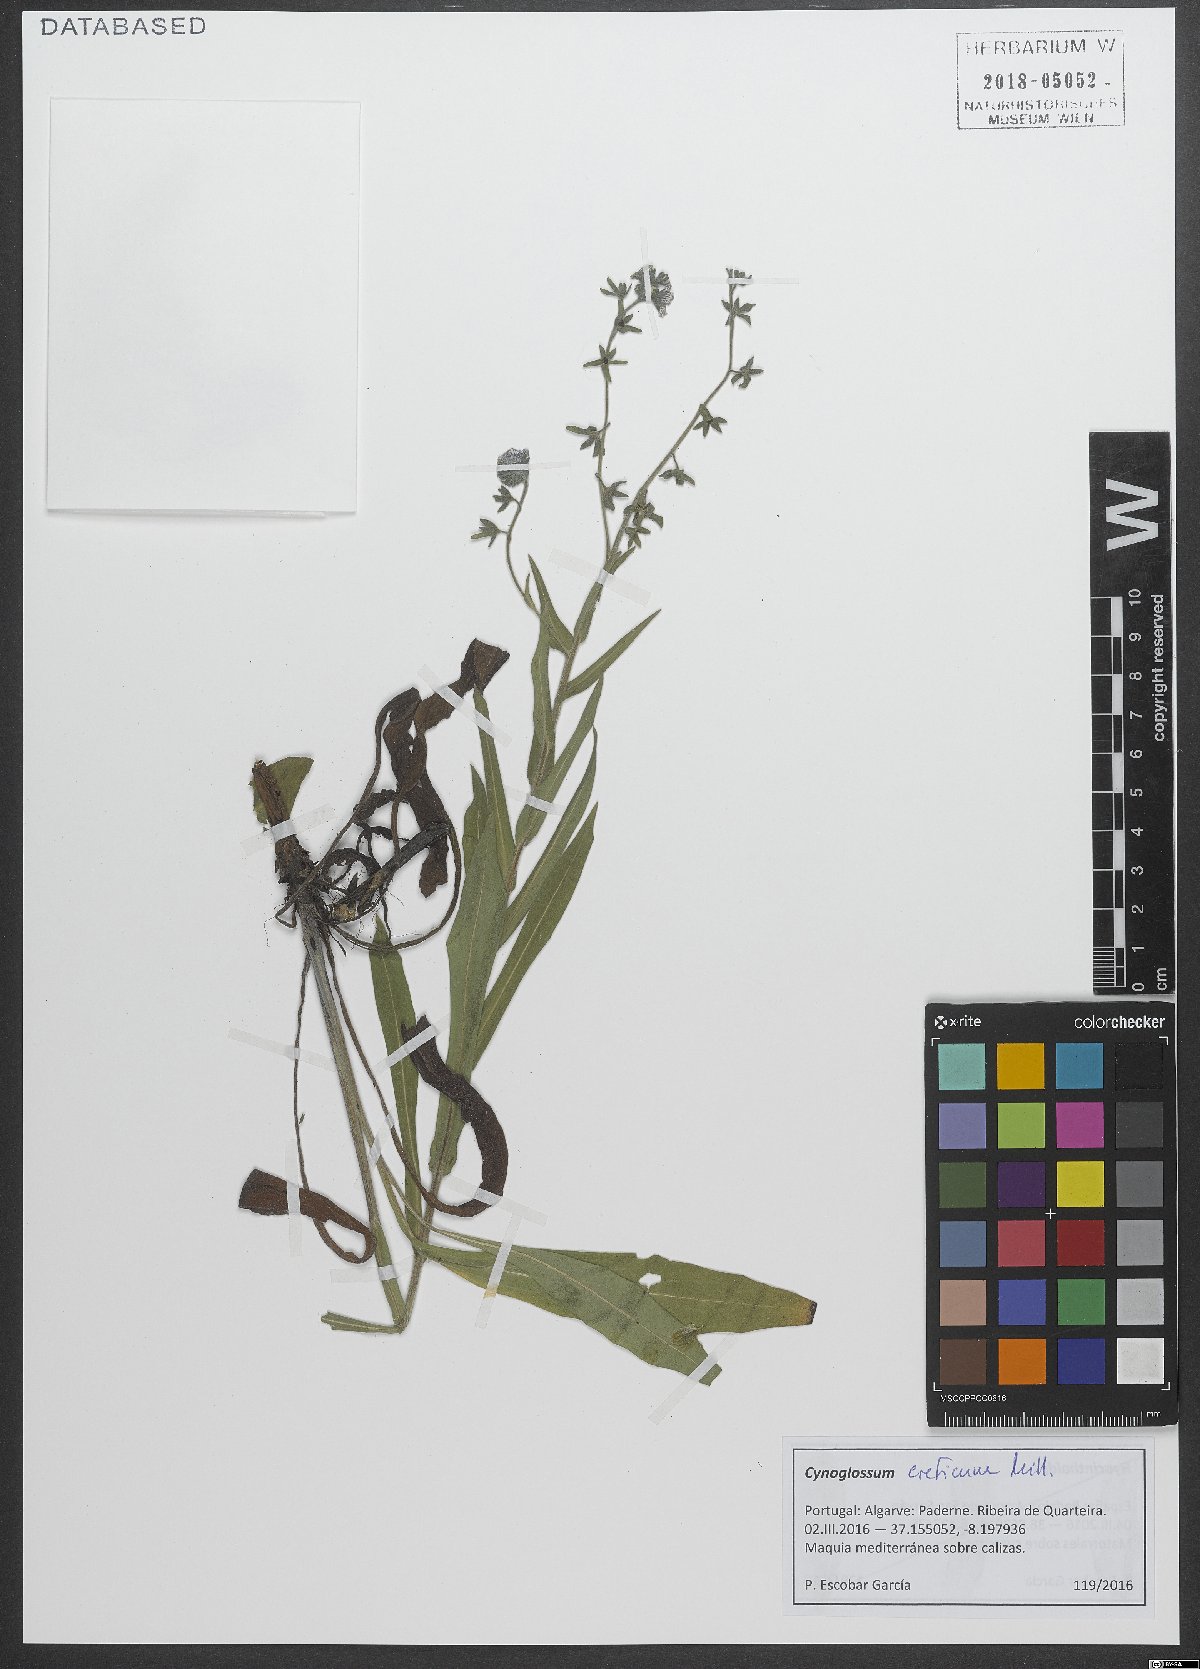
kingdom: Plantae
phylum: Tracheophyta
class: Magnoliopsida
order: Boraginales
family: Boraginaceae
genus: Cynoglossum
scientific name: Cynoglossum creticum
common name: Blue hound's tongue
